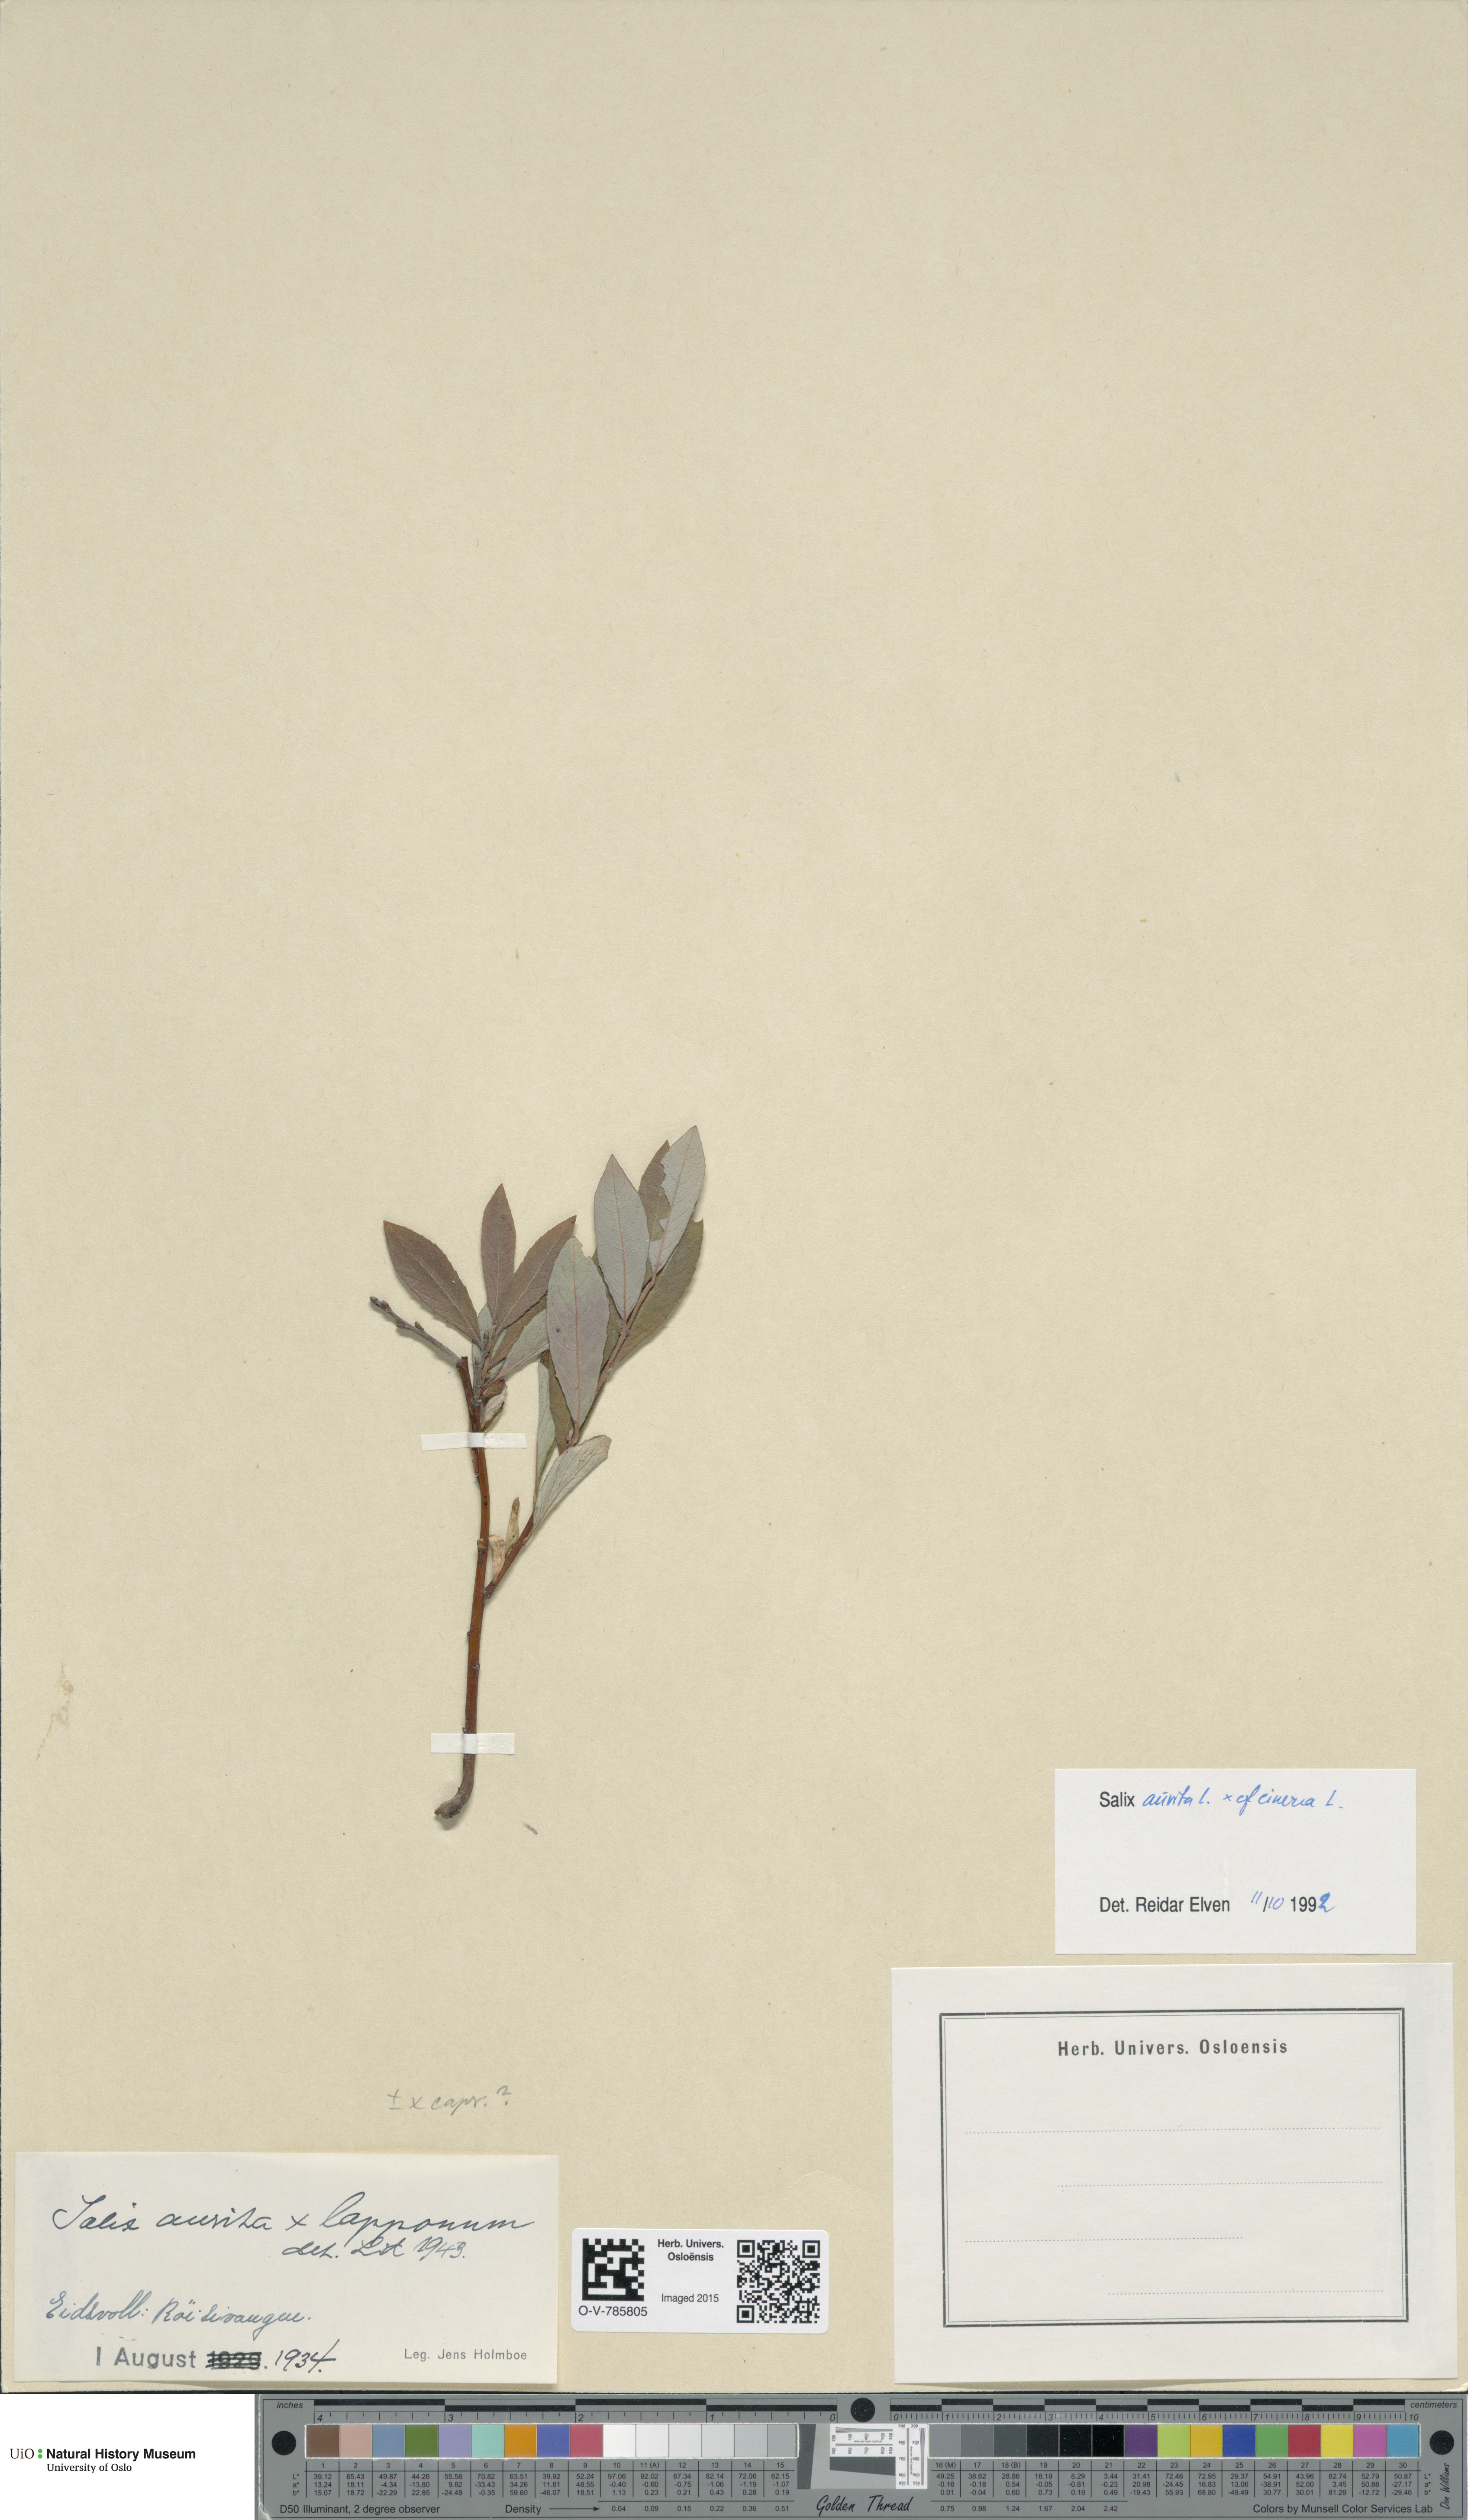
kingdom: Plantae
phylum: Tracheophyta
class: Magnoliopsida
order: Malpighiales
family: Salicaceae
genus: Salix
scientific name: Salix
